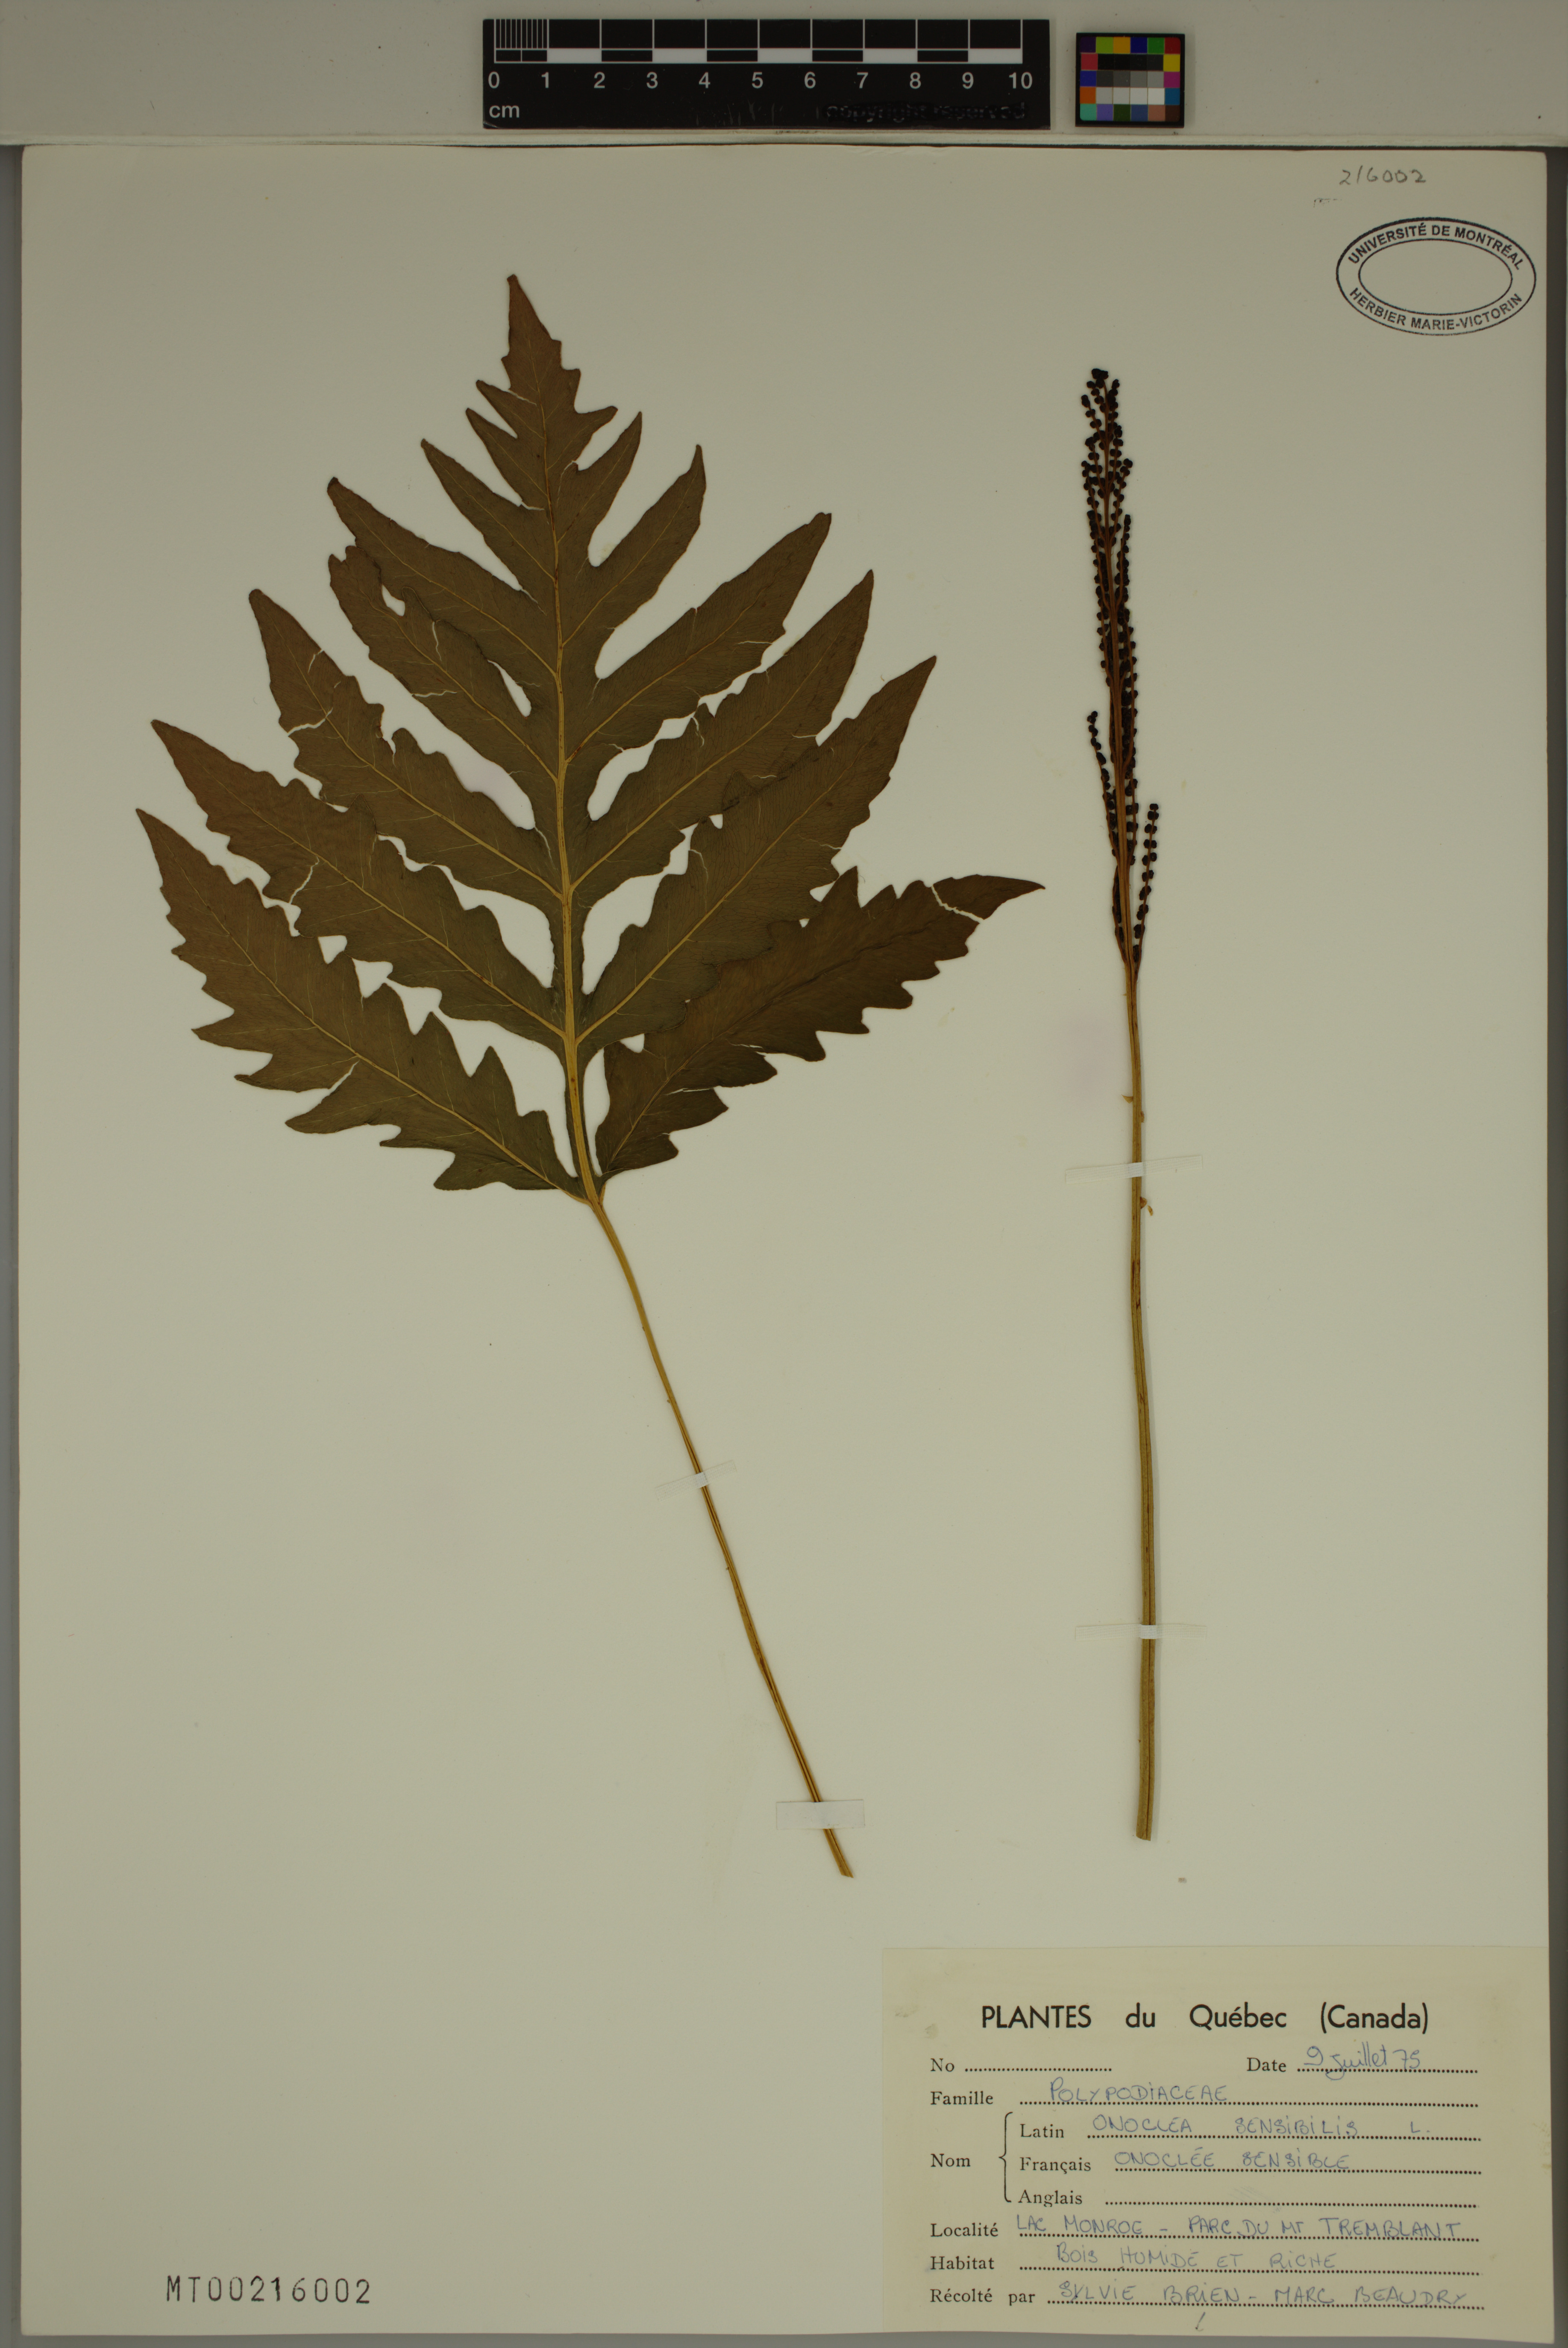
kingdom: Plantae
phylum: Tracheophyta
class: Polypodiopsida
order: Polypodiales
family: Onocleaceae
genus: Onoclea
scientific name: Onoclea sensibilis
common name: Sensitive fern
